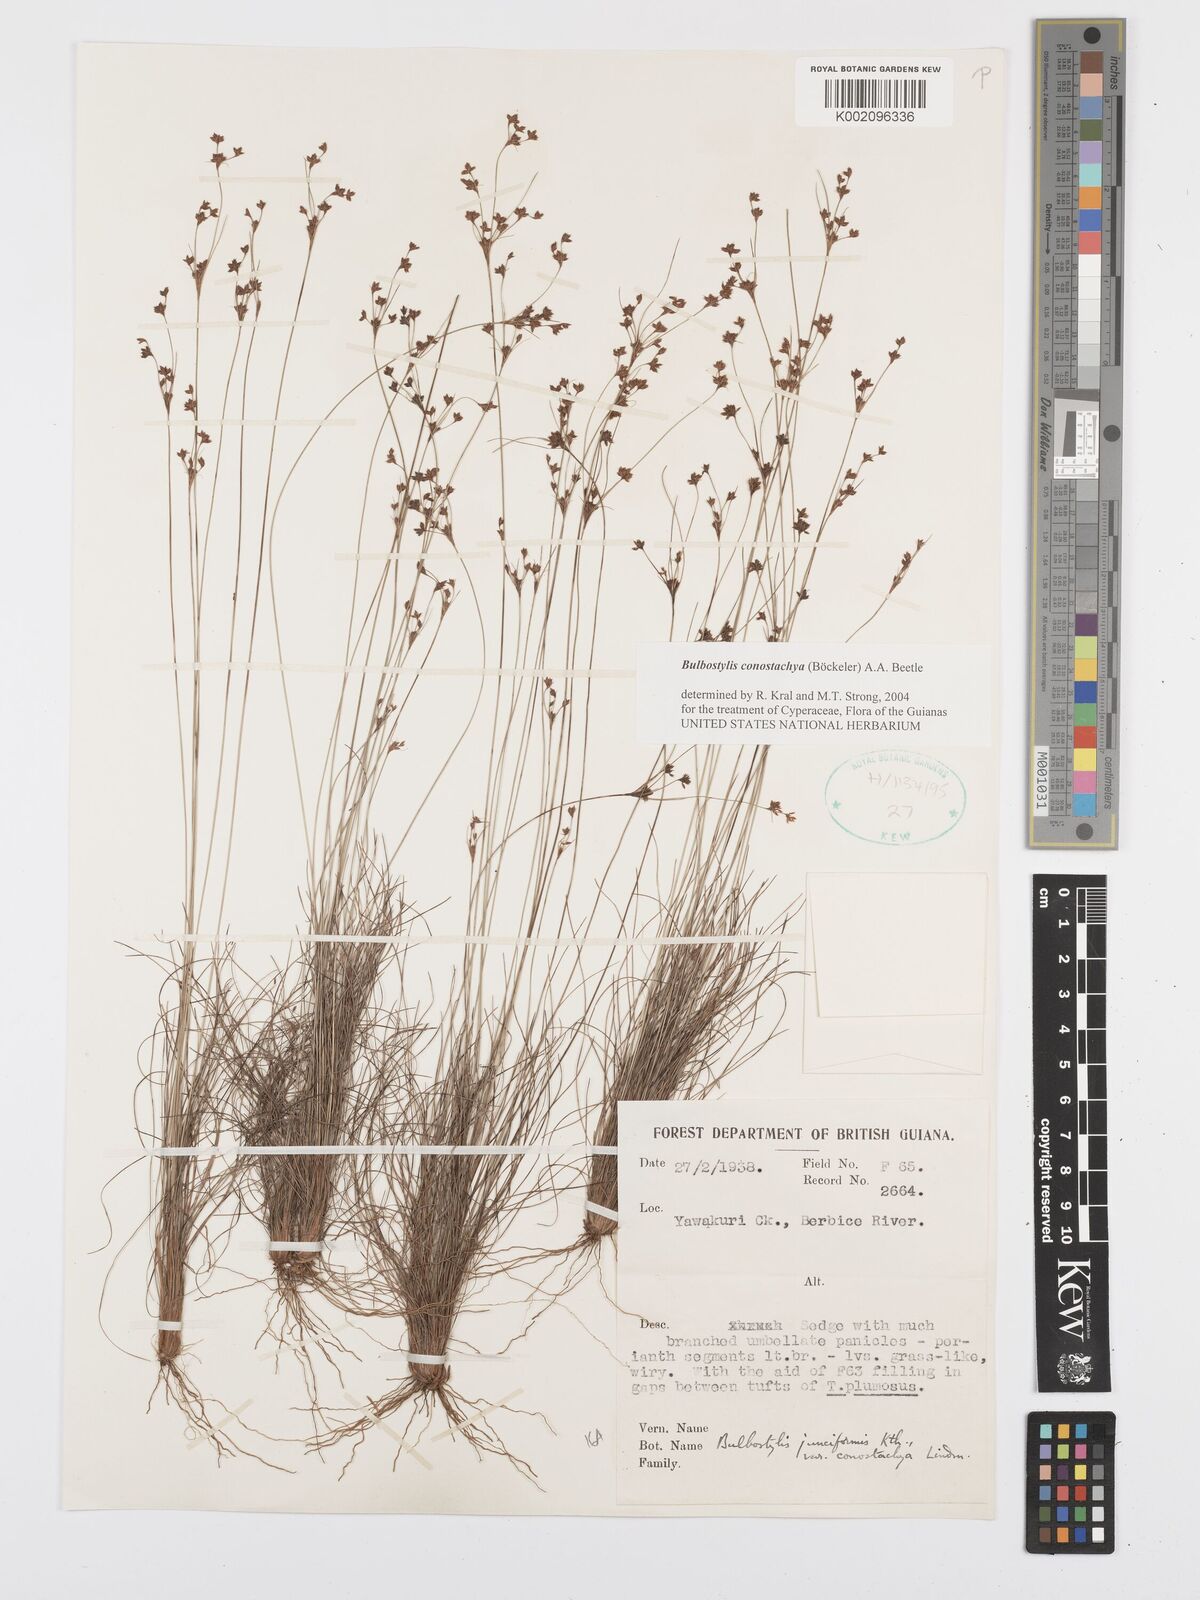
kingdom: Plantae
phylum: Tracheophyta
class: Liliopsida
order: Poales
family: Cyperaceae
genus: Bulbostylis
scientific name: Bulbostylis conostachya
